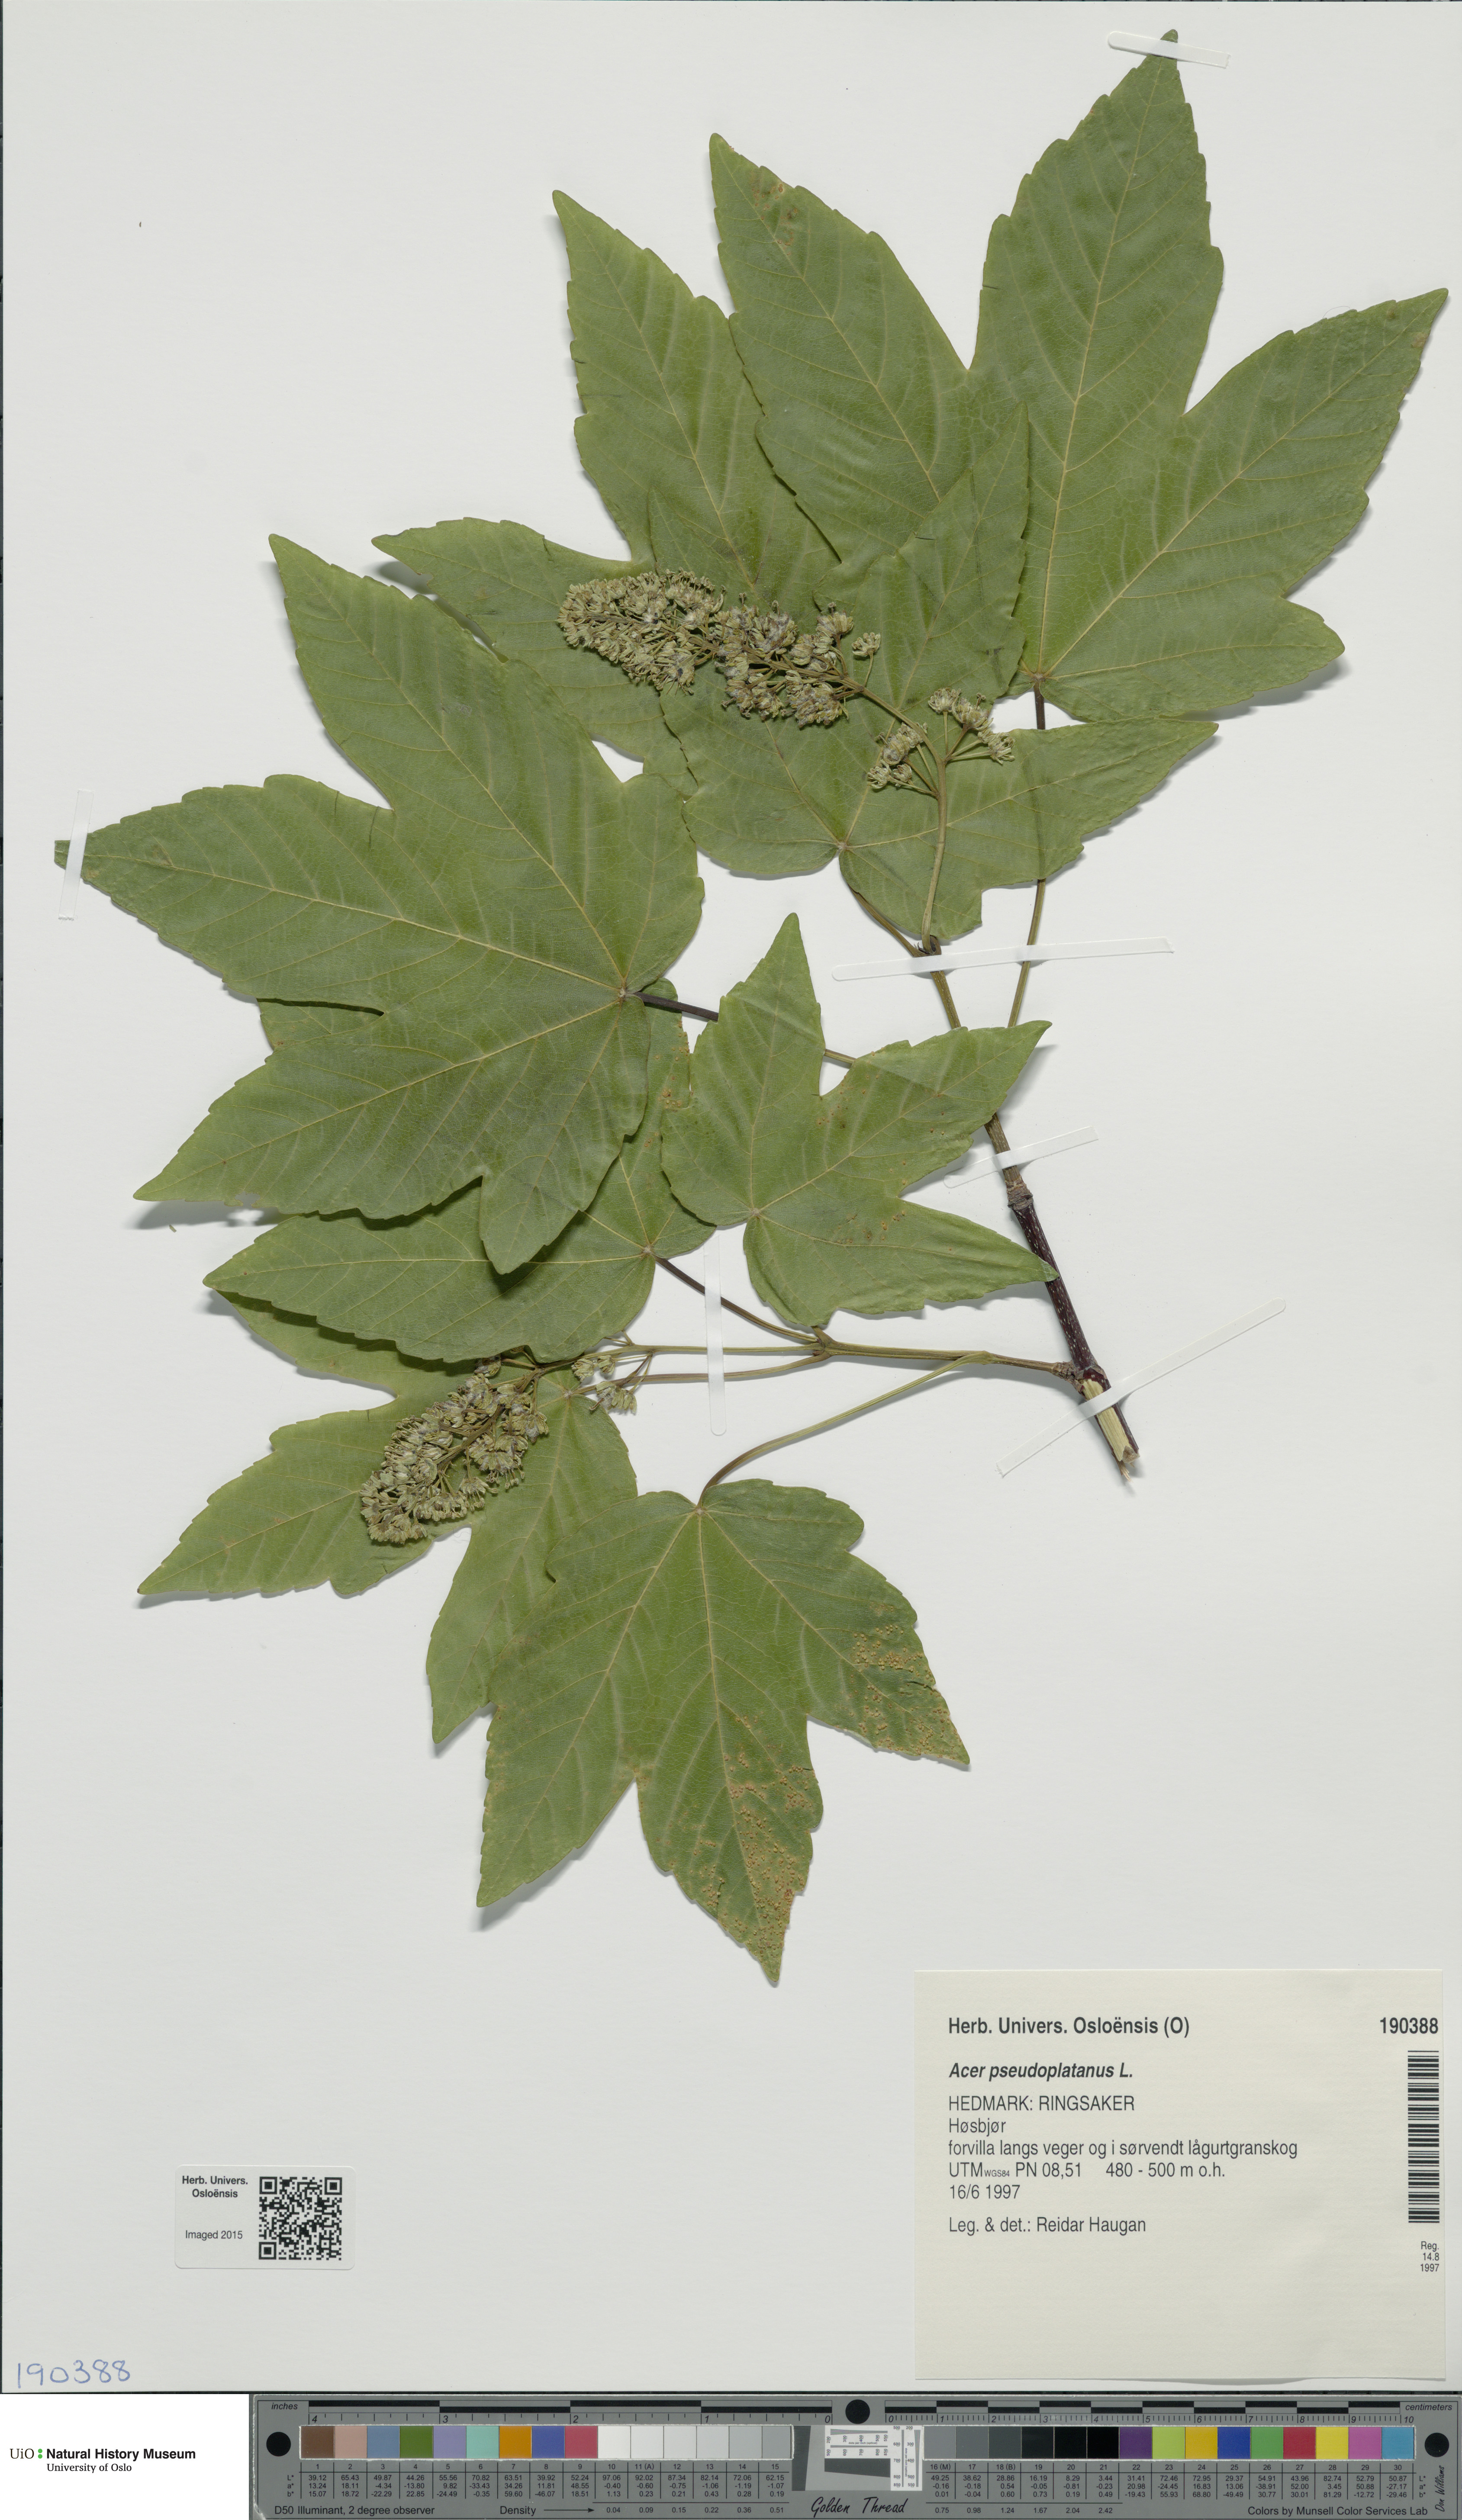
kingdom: Plantae
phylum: Tracheophyta
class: Magnoliopsida
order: Sapindales
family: Sapindaceae
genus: Acer
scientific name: Acer pseudoplatanus
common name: Sycamore
